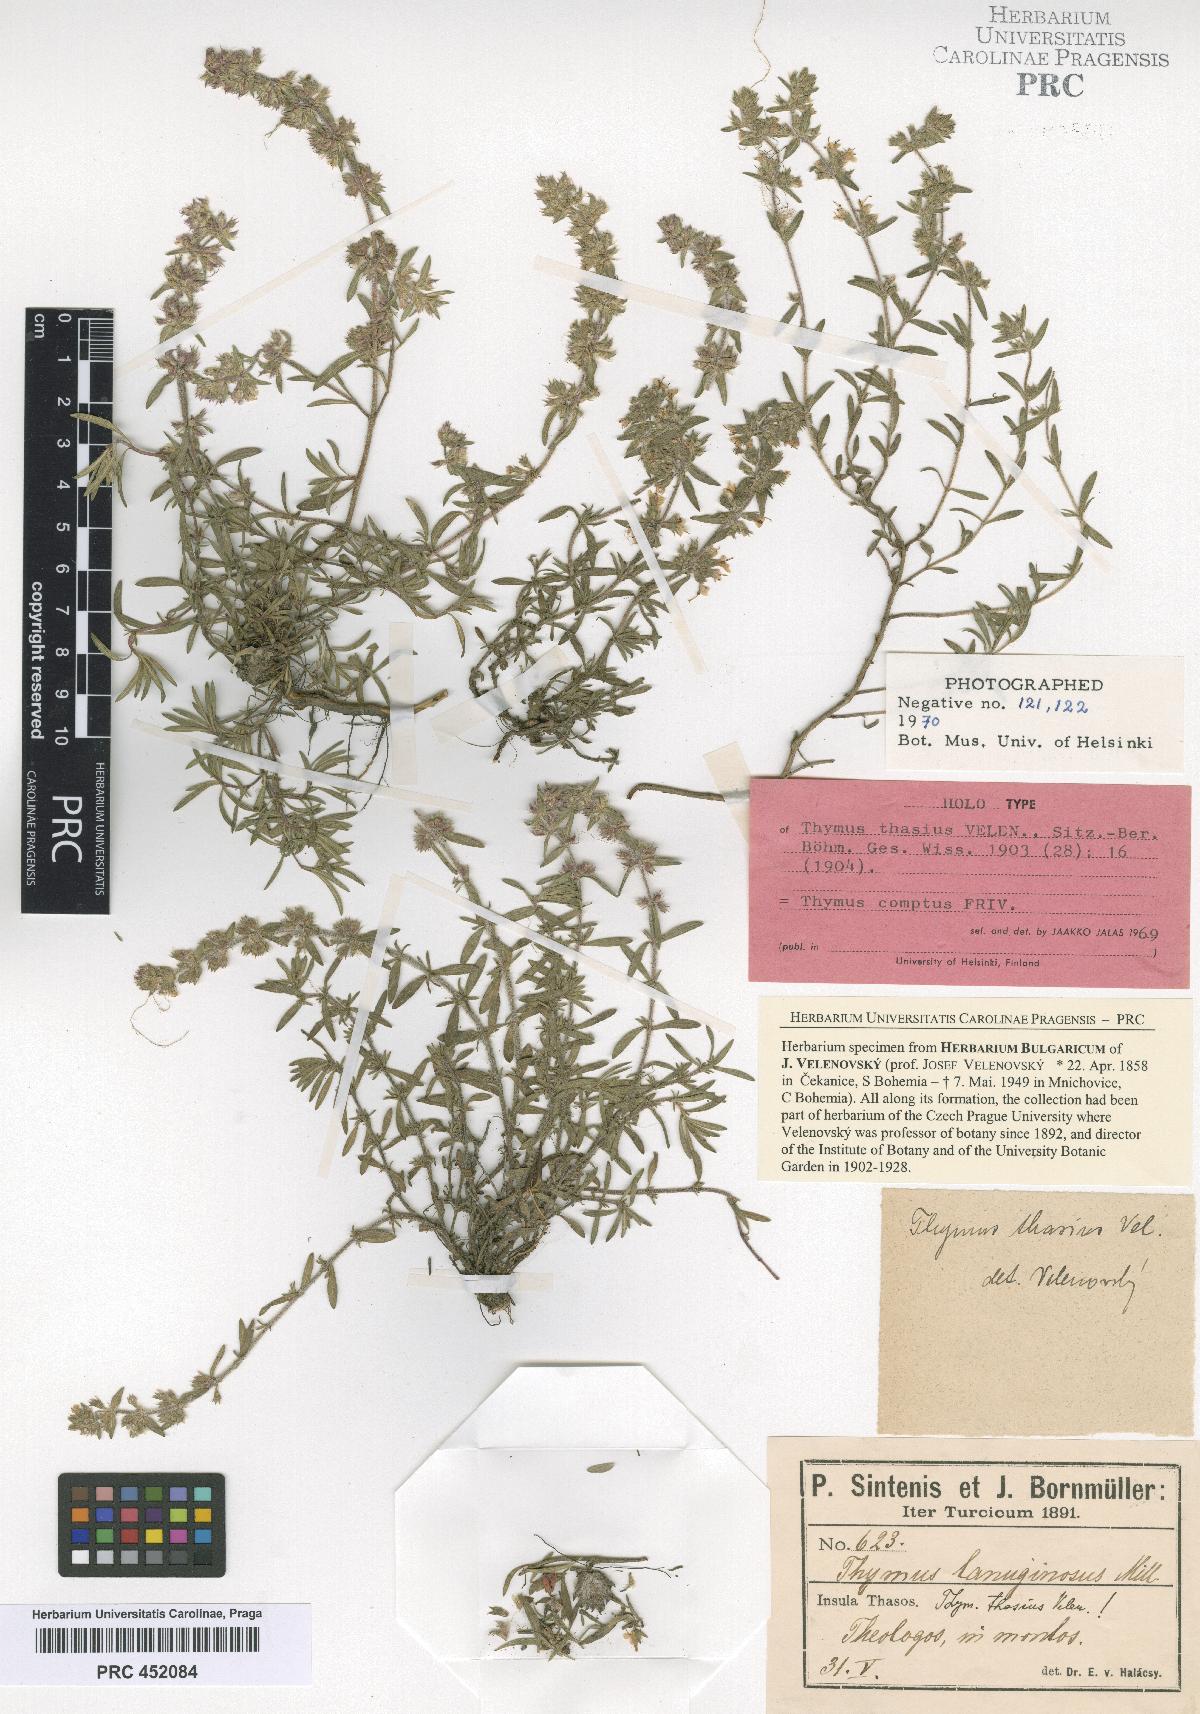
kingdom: Plantae
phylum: Tracheophyta
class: Magnoliopsida
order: Lamiales
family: Lamiaceae
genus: Thymus
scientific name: Thymus comptus
